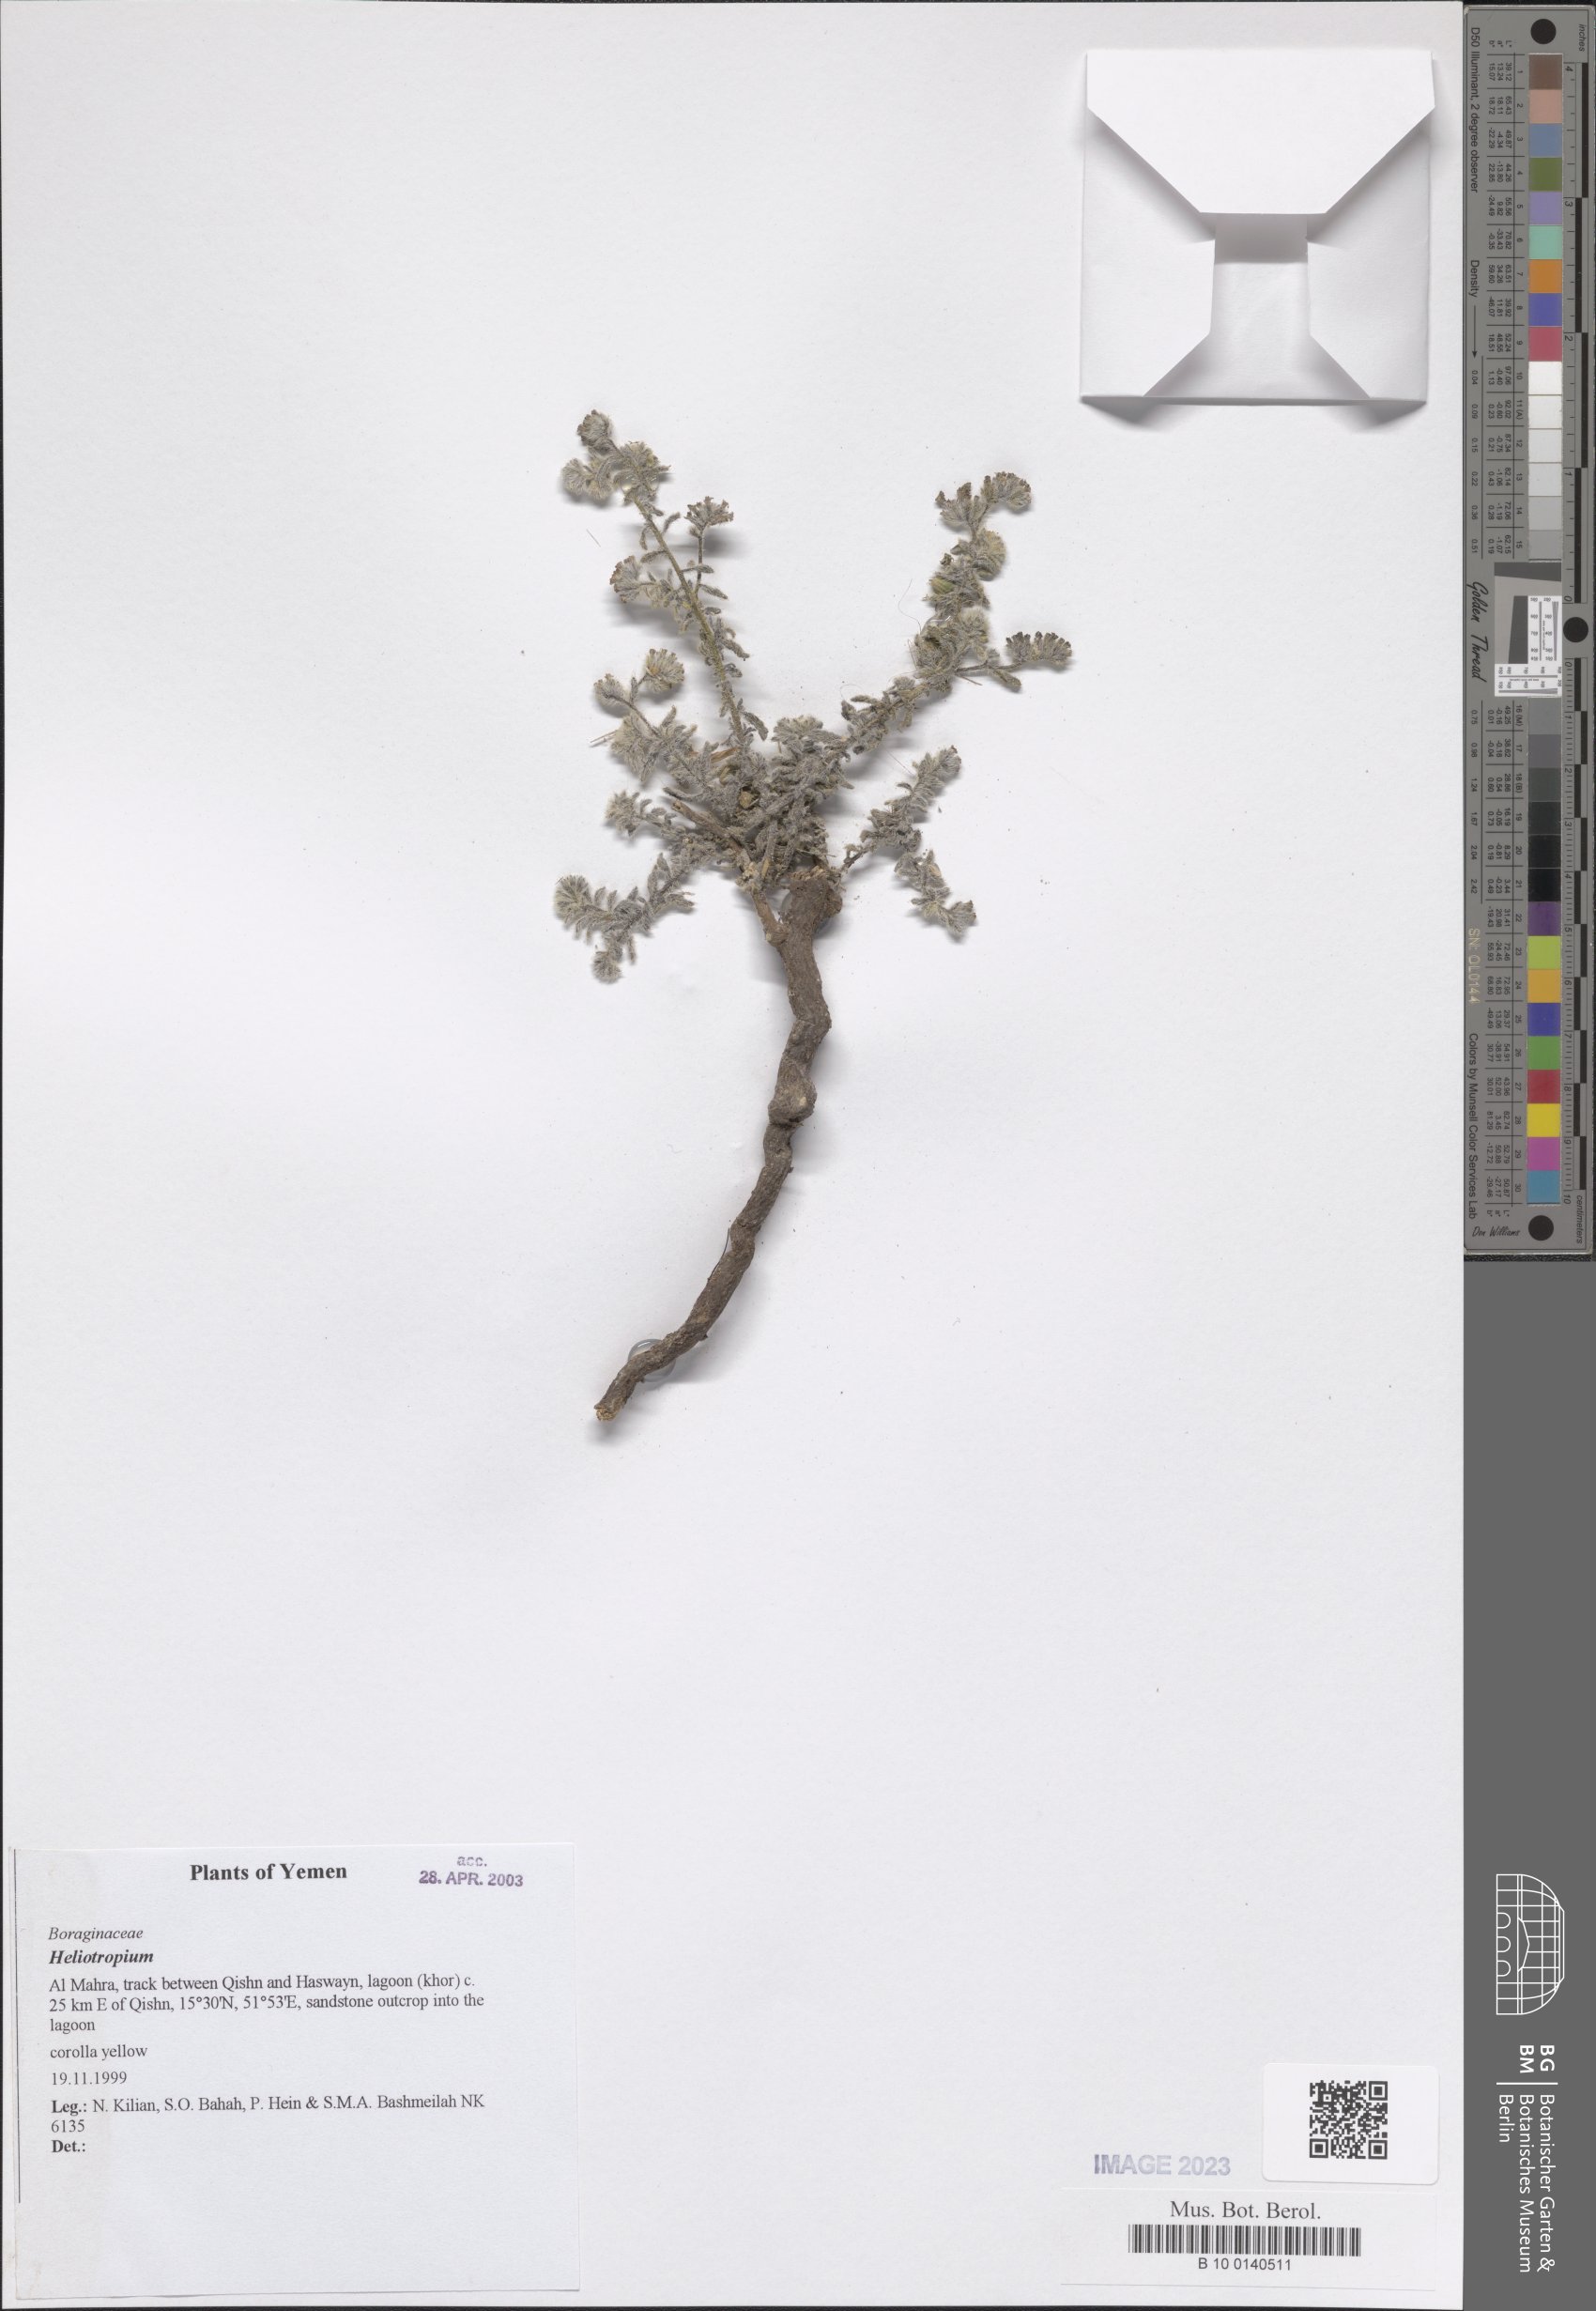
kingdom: Plantae
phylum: Tracheophyta
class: Magnoliopsida
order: Boraginales
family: Heliotropiaceae
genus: Heliotropium
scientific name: Heliotropium
